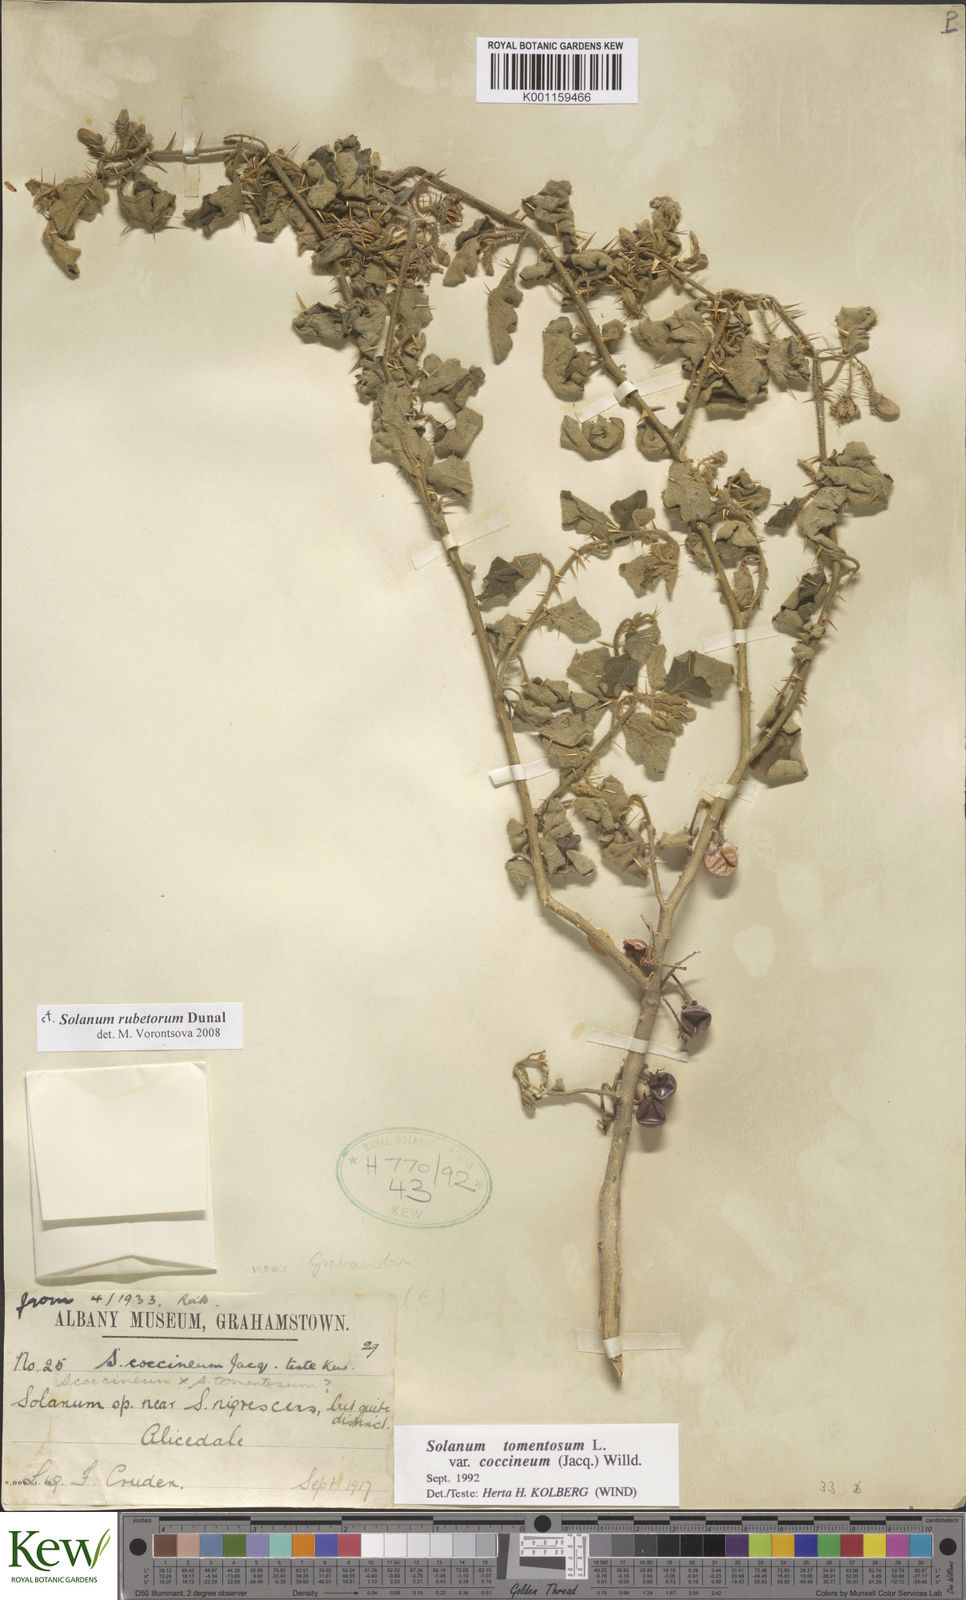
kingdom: Plantae
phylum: Tracheophyta
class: Magnoliopsida
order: Solanales
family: Solanaceae
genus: Solanum
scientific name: Solanum rubetorum
